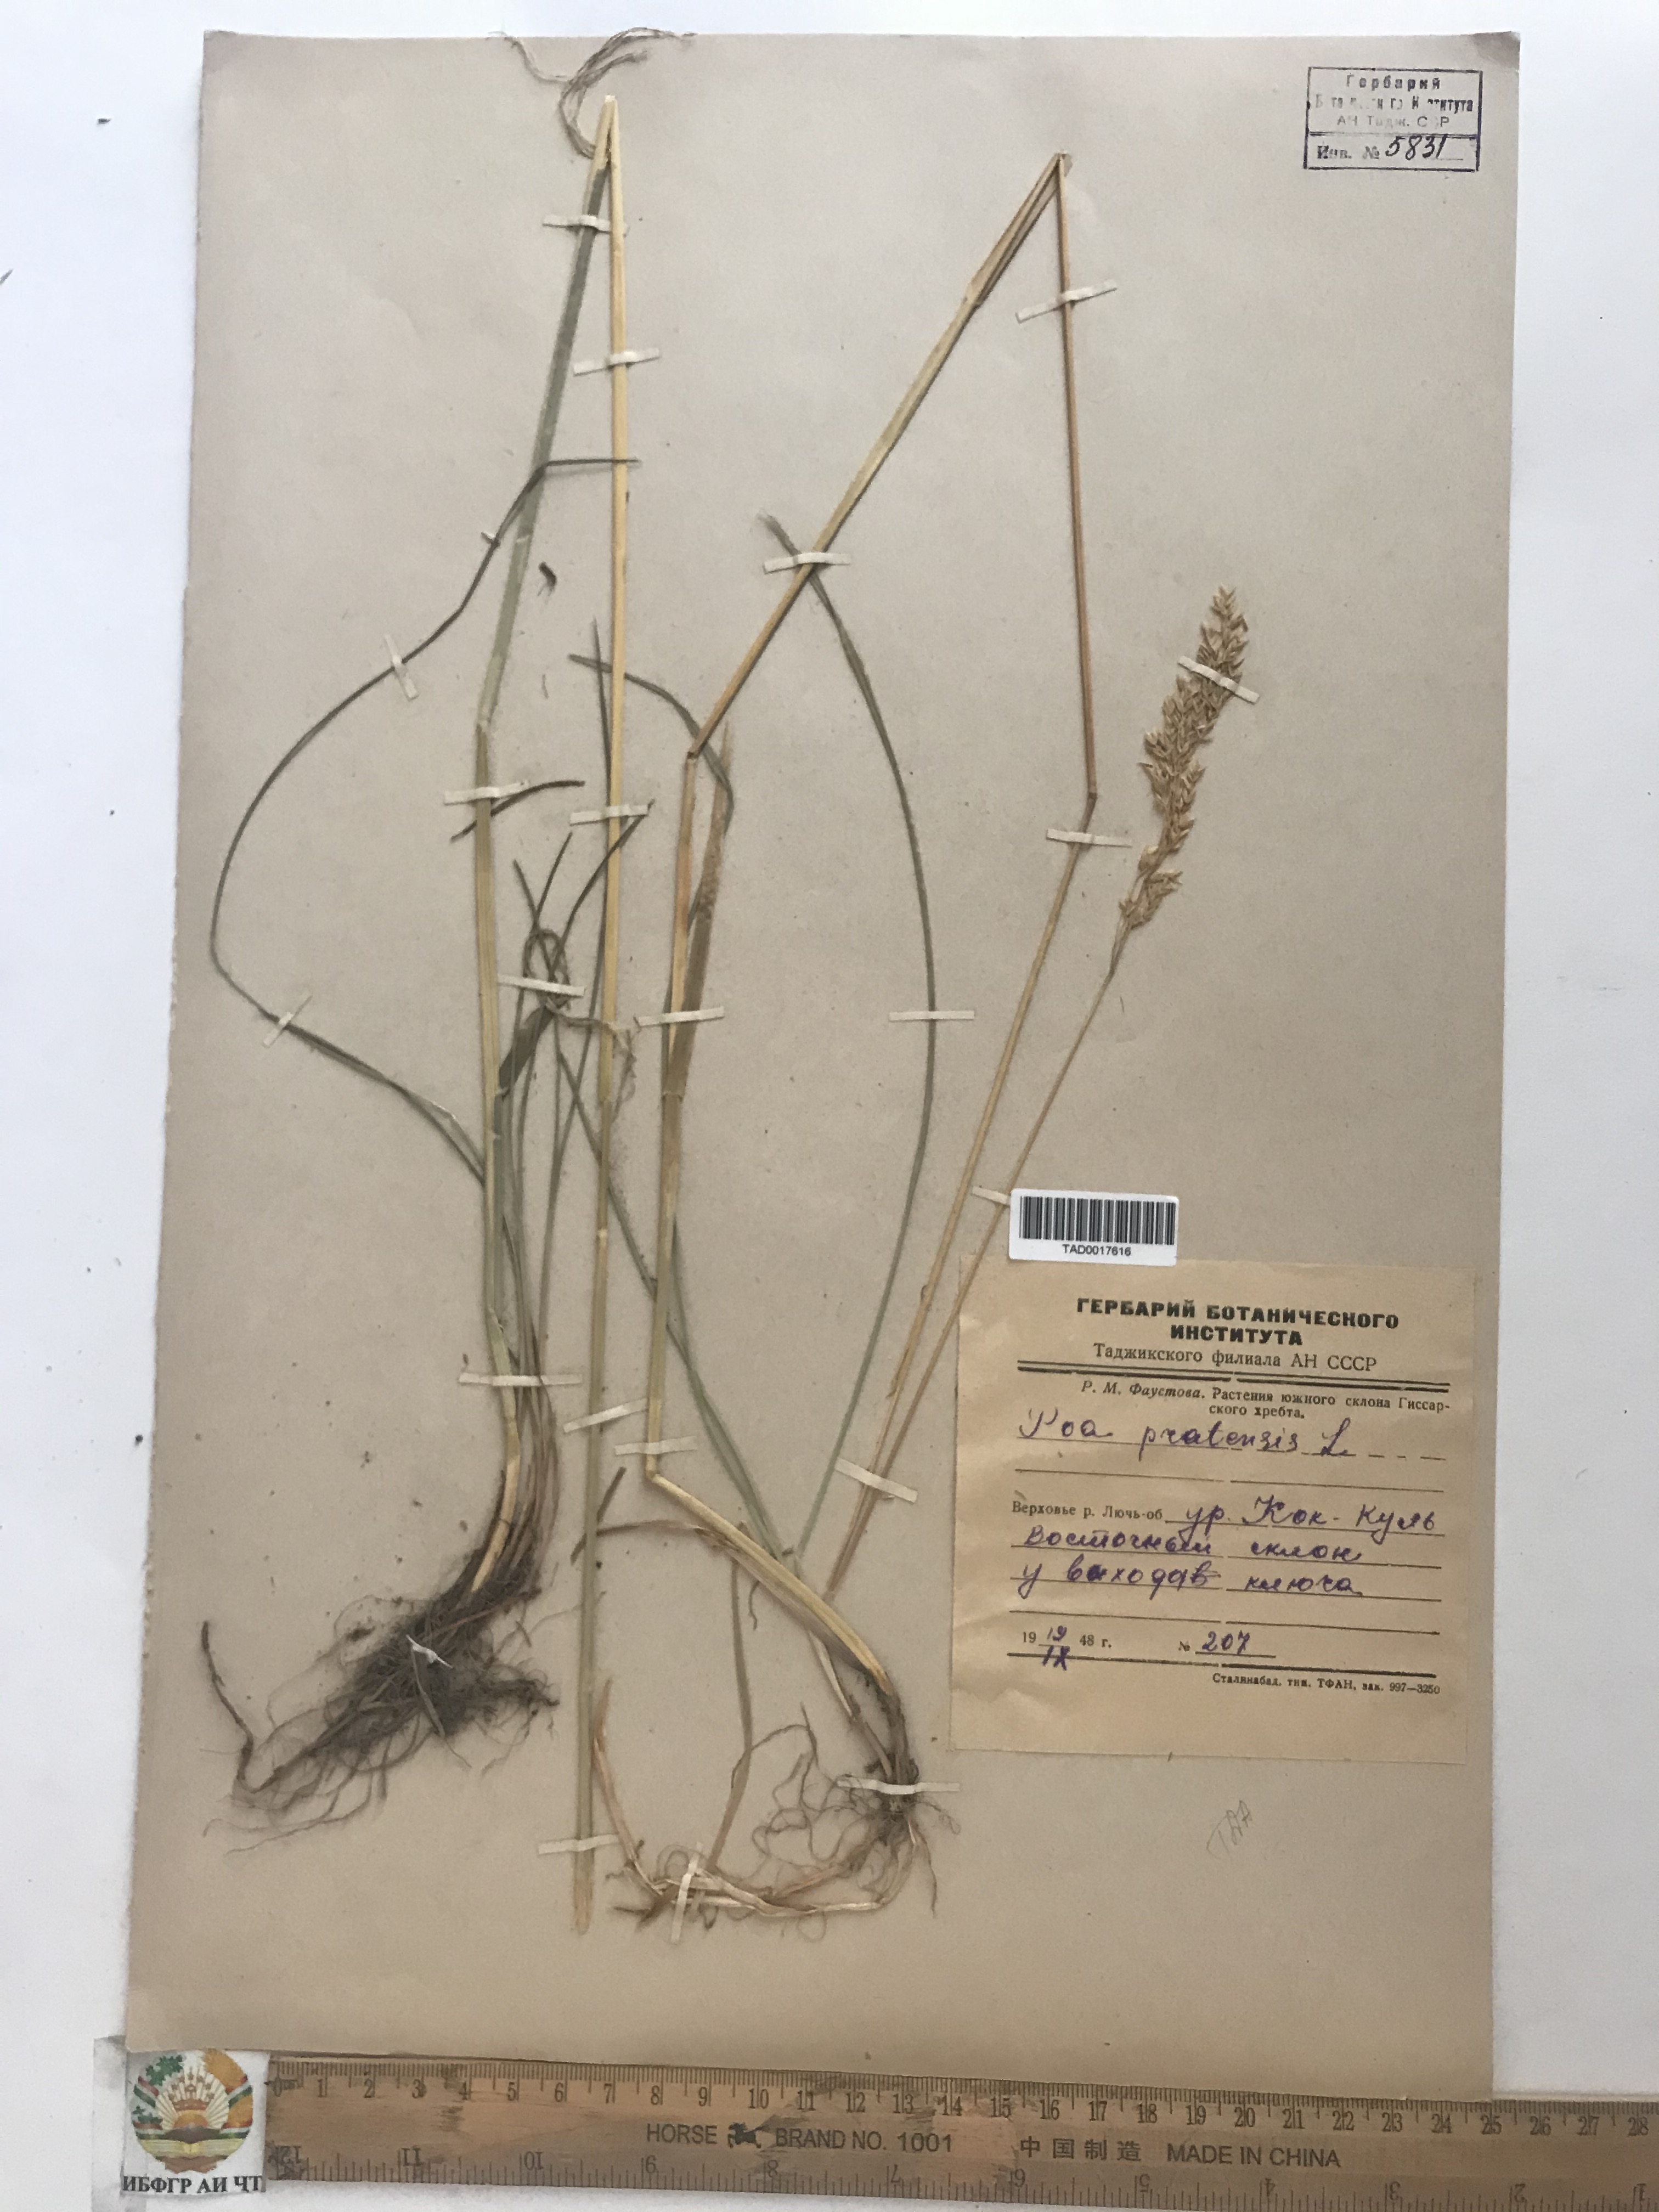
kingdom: Plantae
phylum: Tracheophyta
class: Liliopsida
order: Poales
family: Poaceae
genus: Poa
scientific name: Poa pratensis
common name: Kentucky bluegrass
